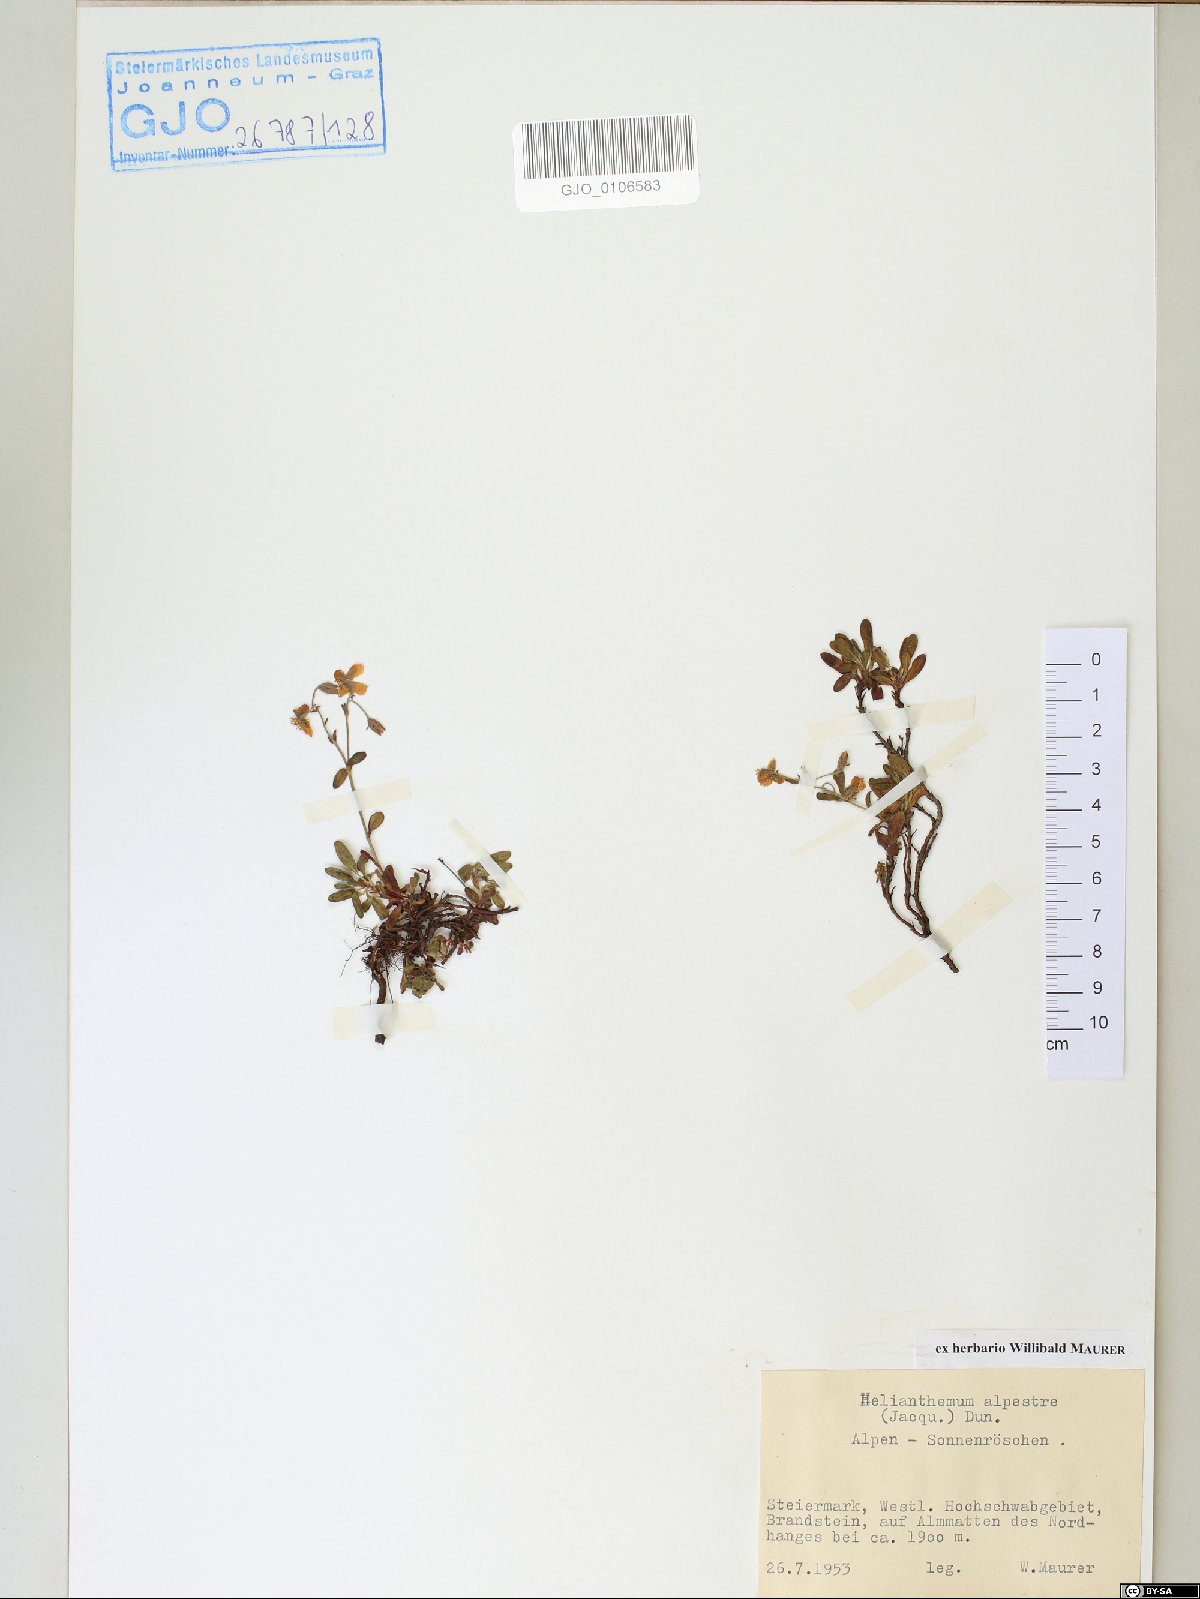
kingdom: Plantae
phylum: Tracheophyta
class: Magnoliopsida
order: Malvales
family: Cistaceae
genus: Helianthemum
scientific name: Helianthemum alpestre
